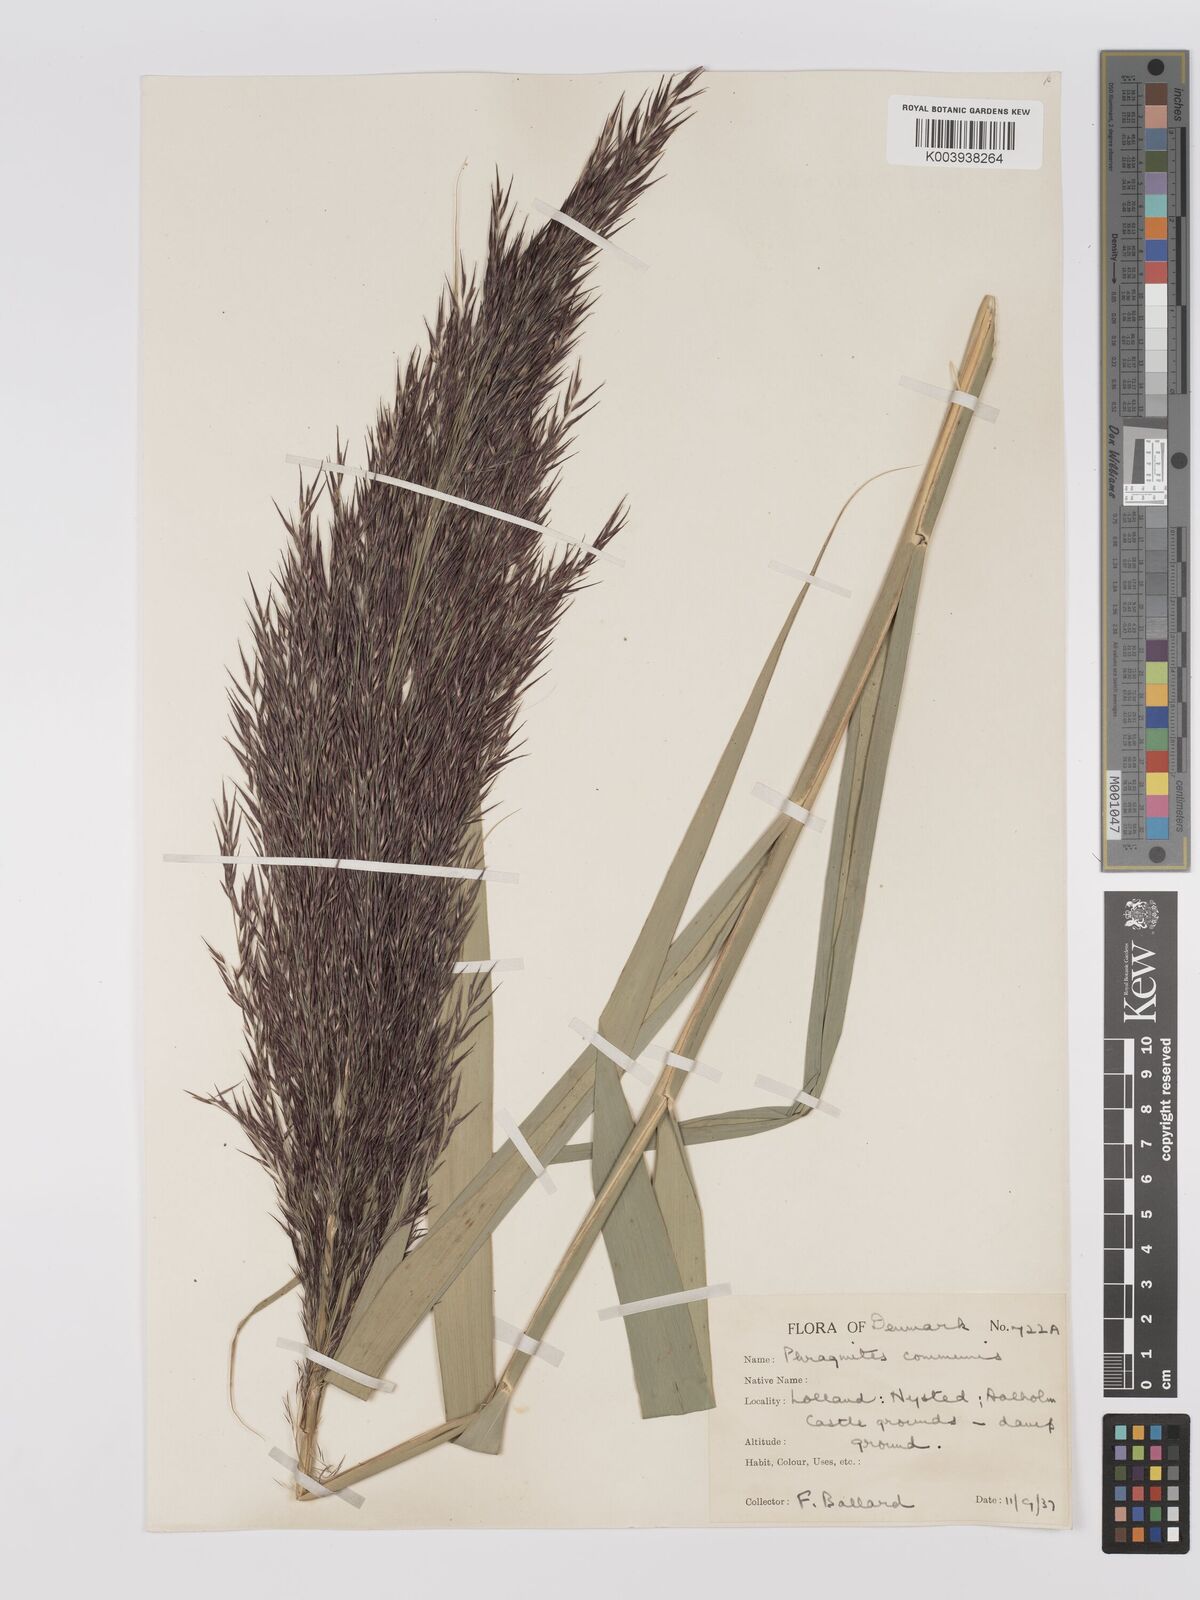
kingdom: Plantae
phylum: Tracheophyta
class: Liliopsida
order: Poales
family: Poaceae
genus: Phragmites
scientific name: Phragmites australis
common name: Common reed
